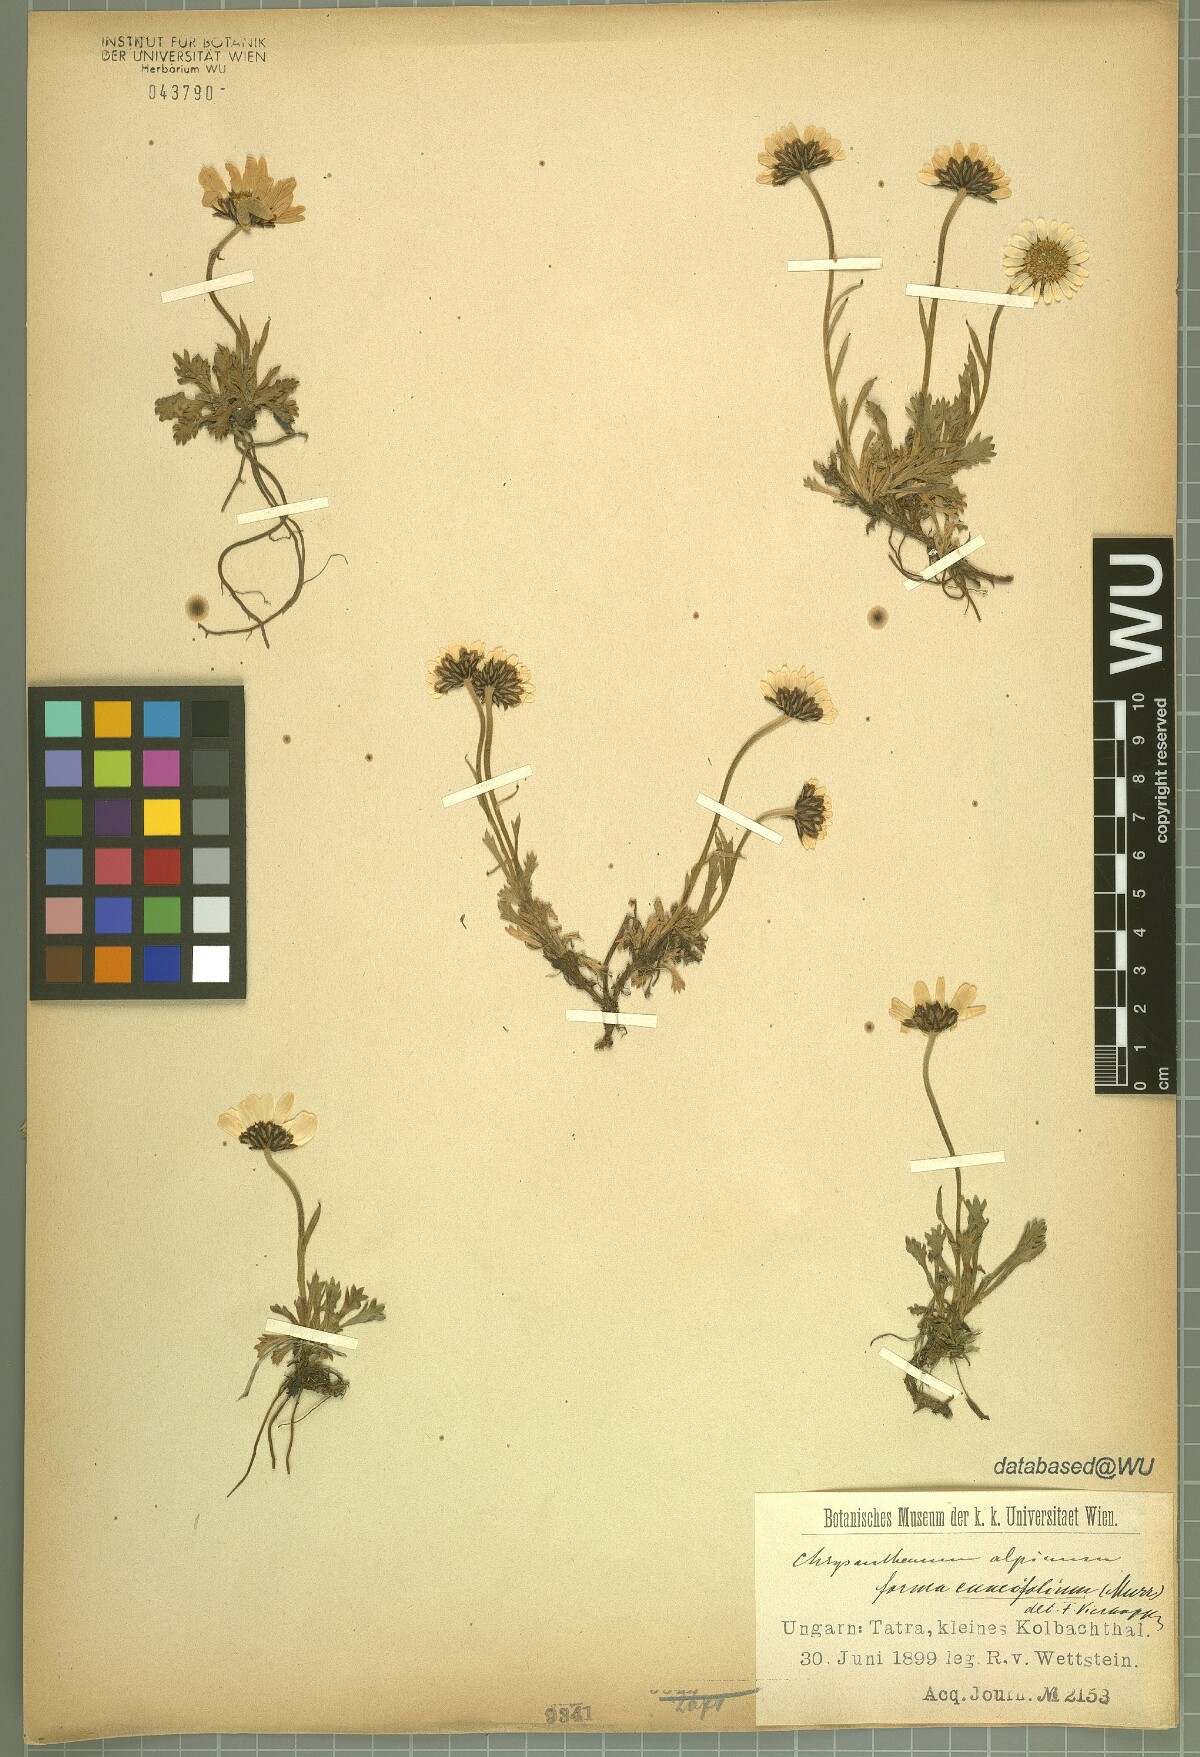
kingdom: Plantae
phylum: Tracheophyta
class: Magnoliopsida
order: Asterales
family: Asteraceae
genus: Leucanthemopsis
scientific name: Leucanthemopsis alpina
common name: Alpine moon daisy
